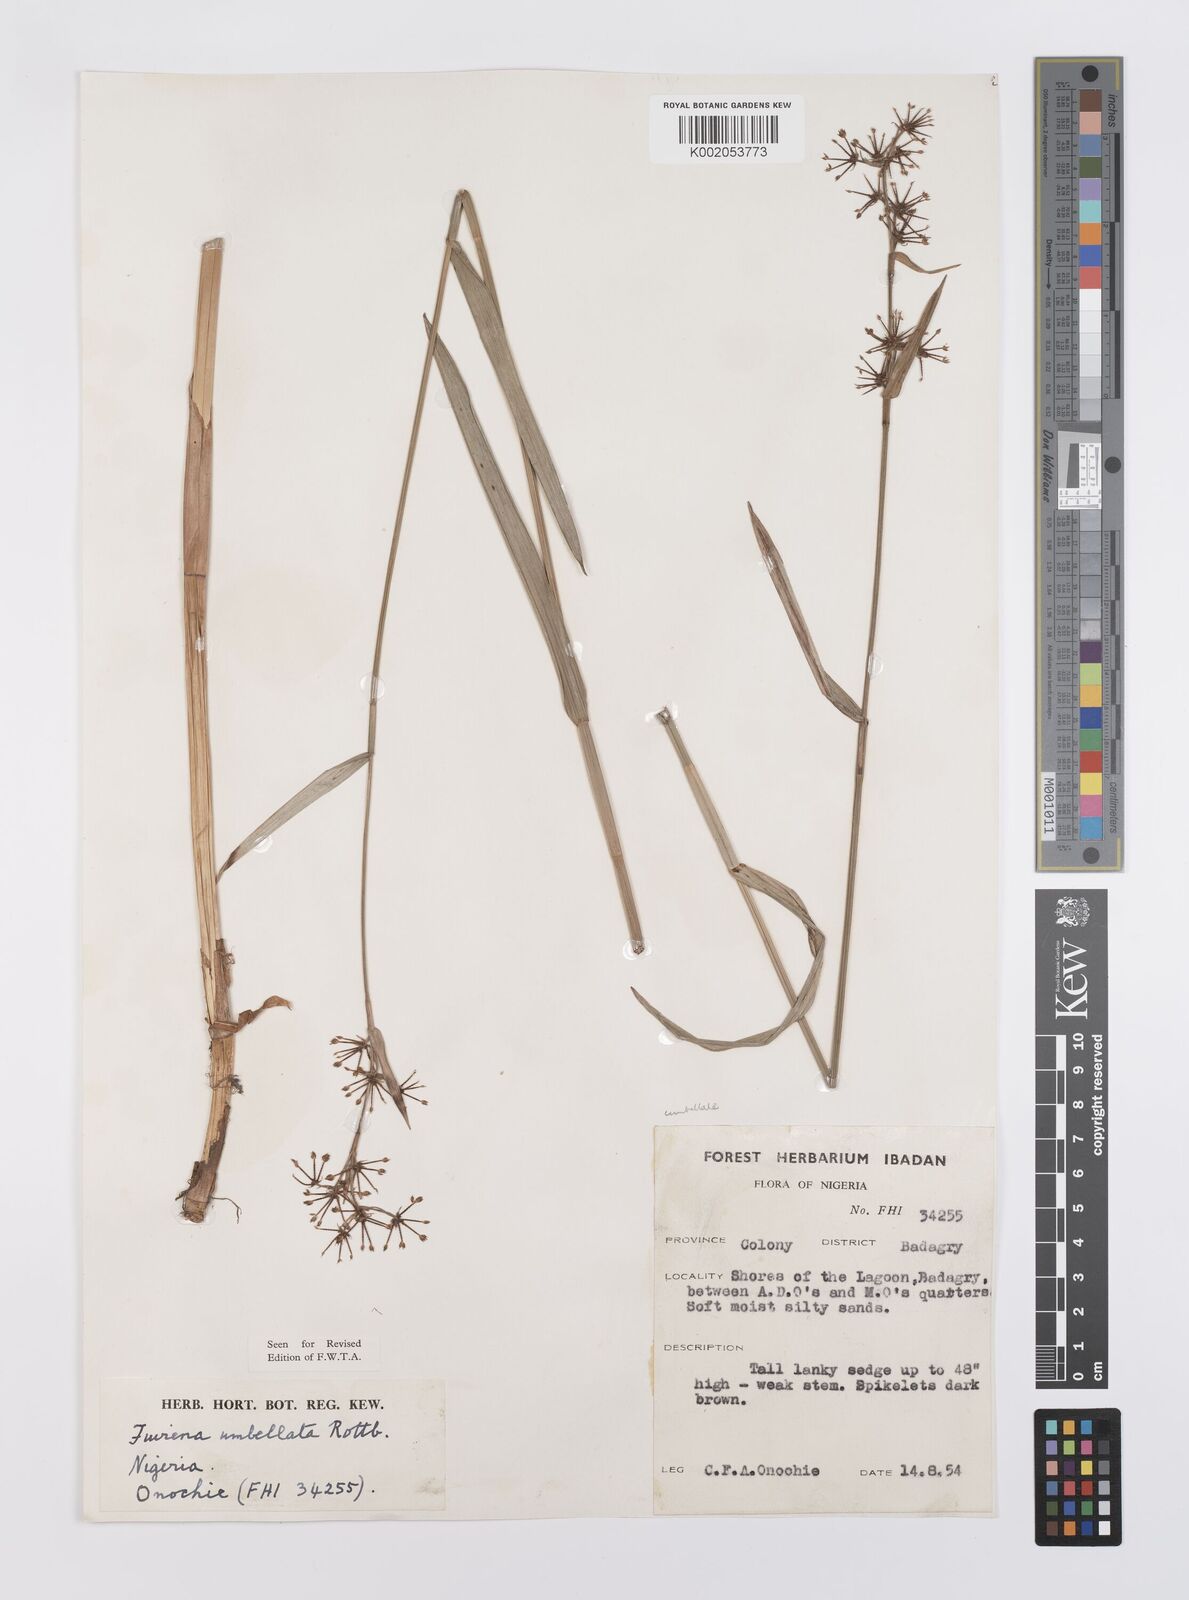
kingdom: Plantae
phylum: Tracheophyta
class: Liliopsida
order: Poales
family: Cyperaceae
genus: Fuirena
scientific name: Fuirena umbellata
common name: Yefen
